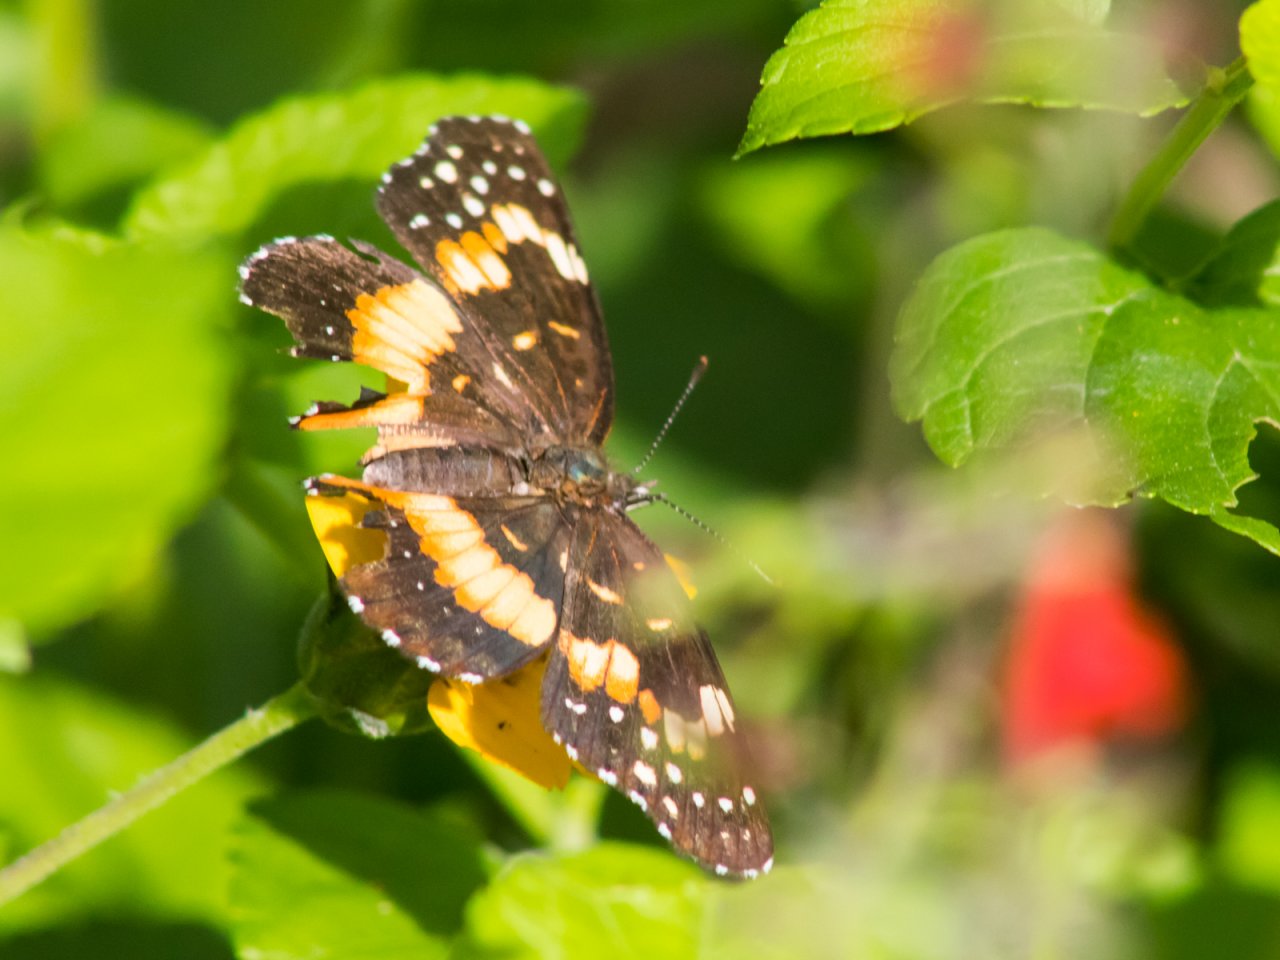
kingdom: Animalia
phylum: Arthropoda
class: Insecta
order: Lepidoptera
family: Nymphalidae
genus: Chlosyne
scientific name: Chlosyne lacinia
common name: Bordered Patch
